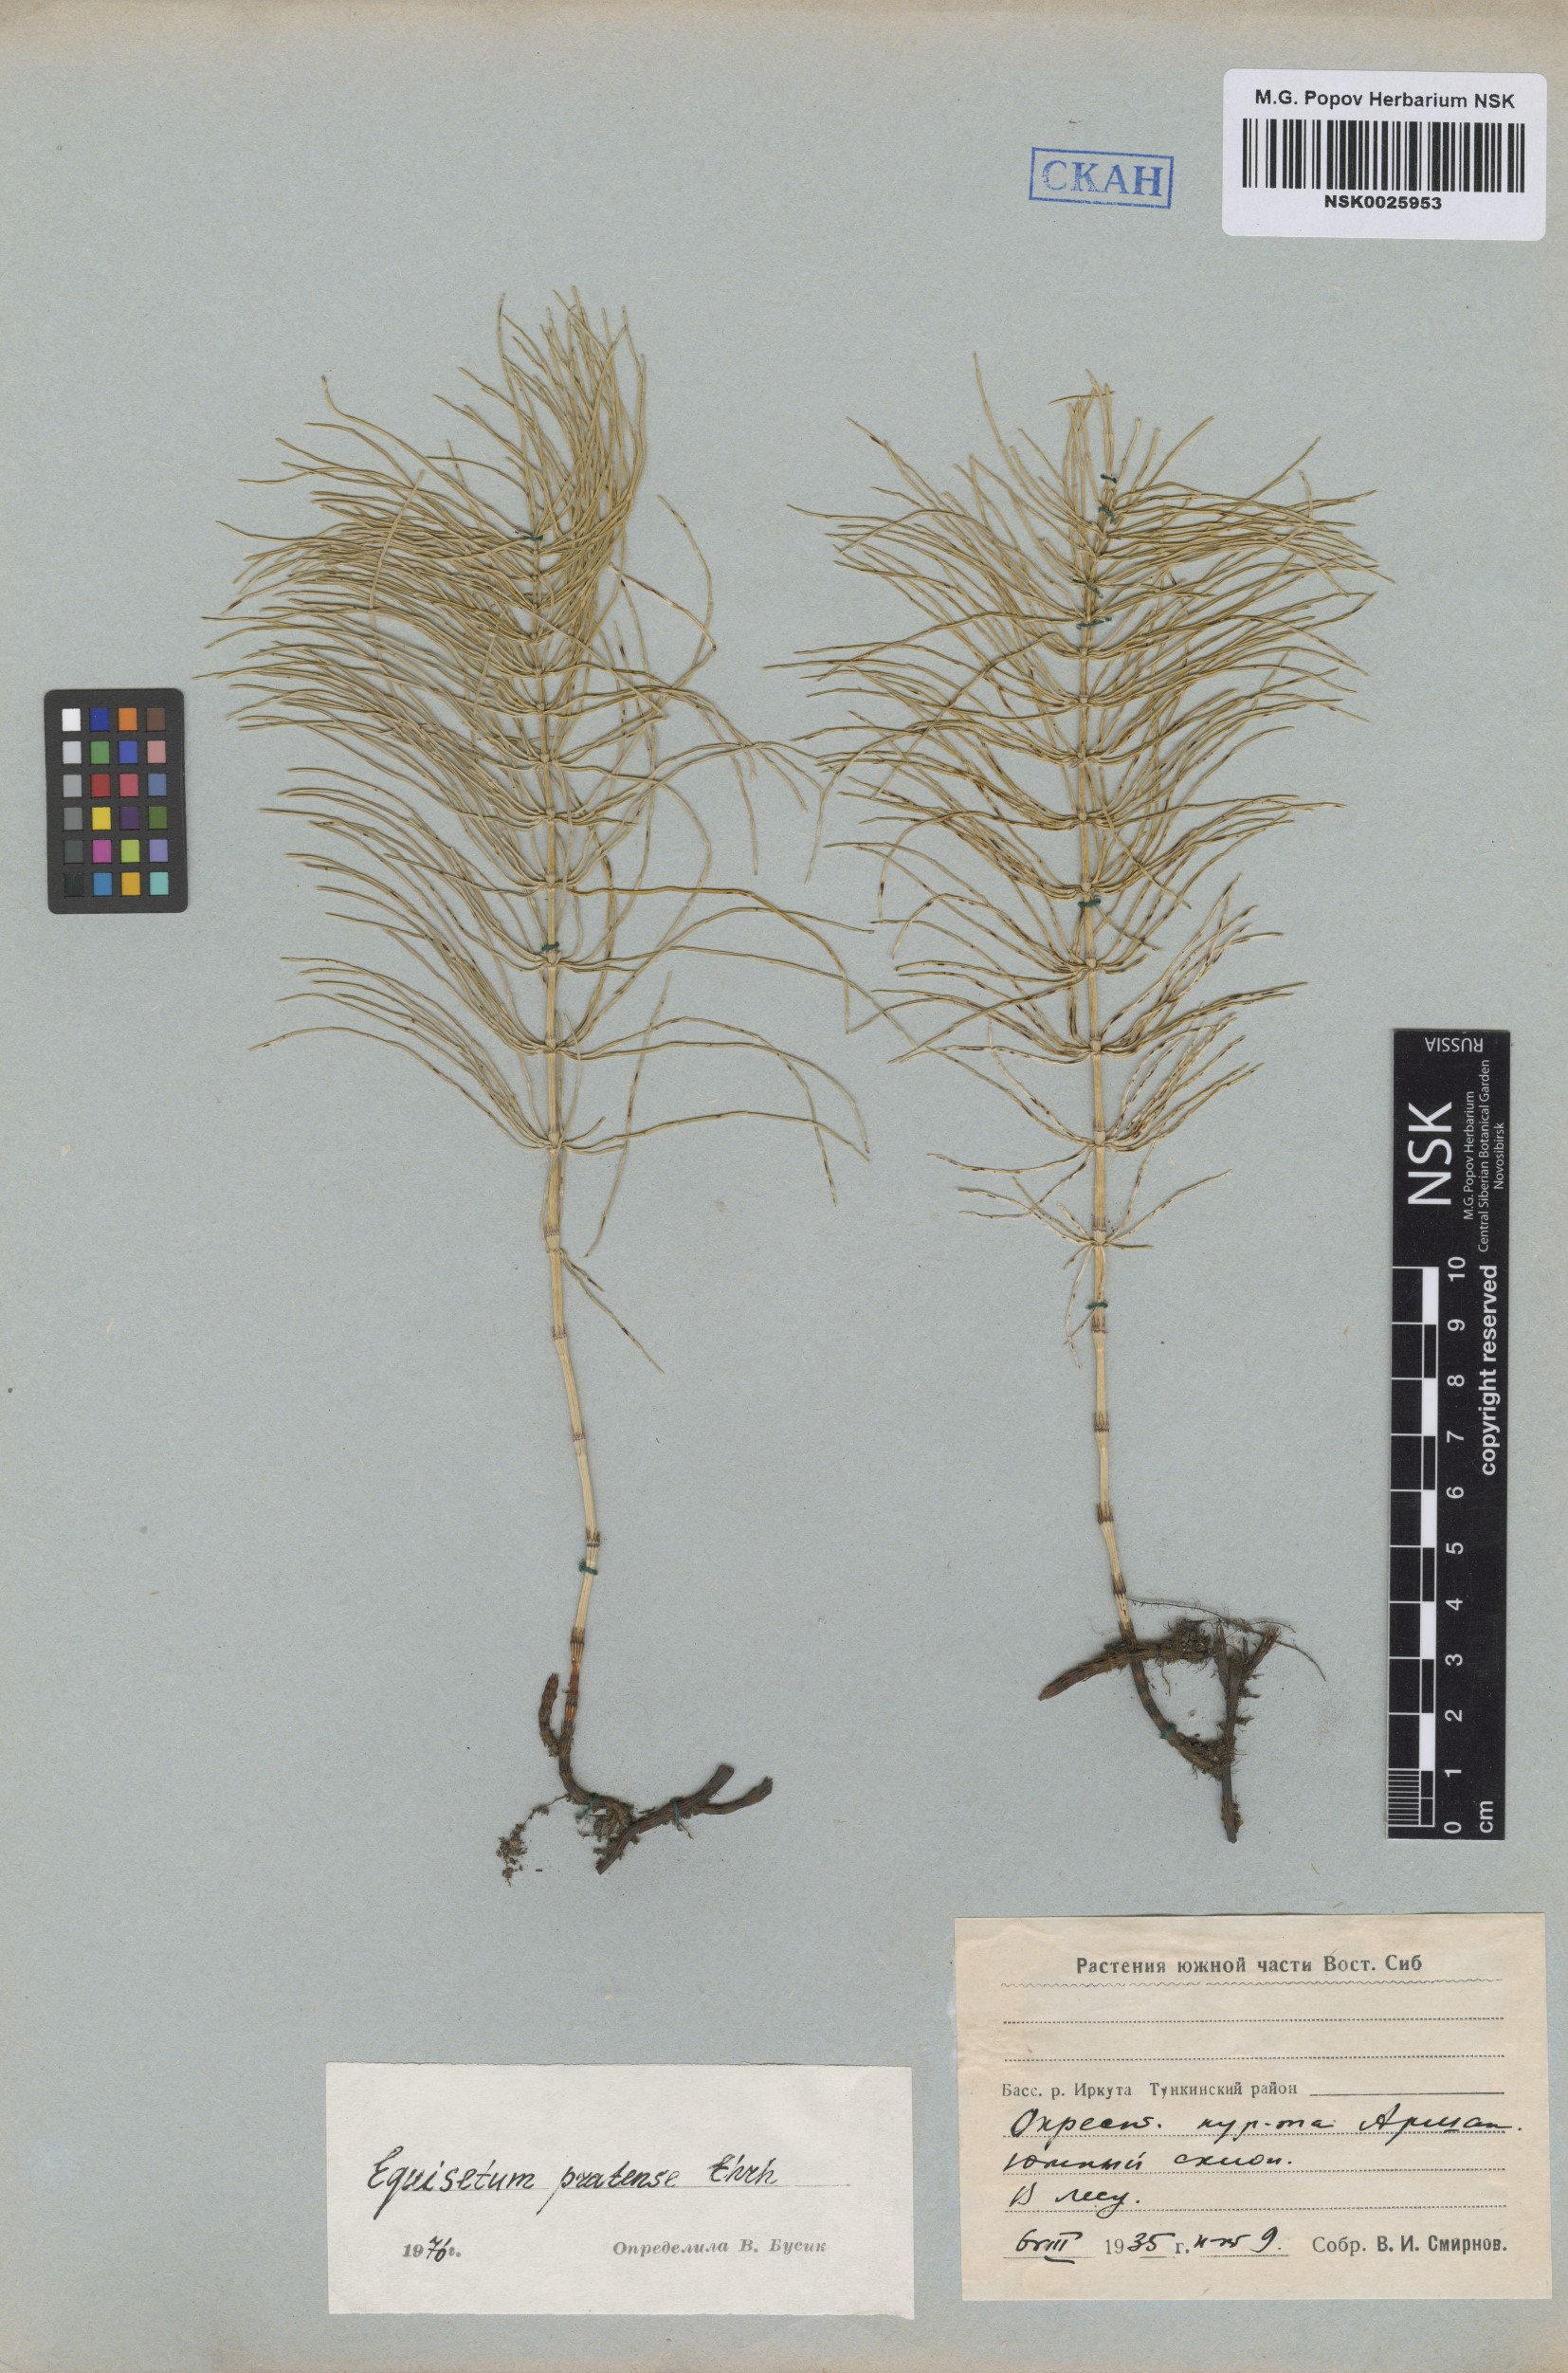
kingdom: Plantae
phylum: Tracheophyta
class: Polypodiopsida
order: Equisetales
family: Equisetaceae
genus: Equisetum
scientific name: Equisetum pratense
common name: Meadow horsetail
